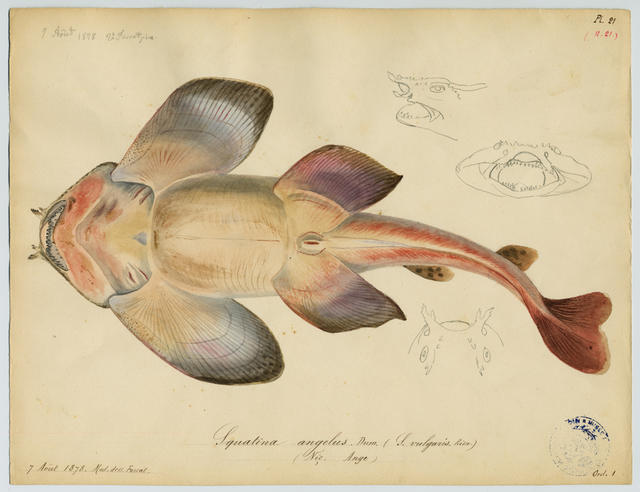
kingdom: Animalia
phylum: Chordata
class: Elasmobranchii
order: Squatiniformes
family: Squatinidae
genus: Squatina
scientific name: Squatina aculeata
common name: Sawback angelshark
